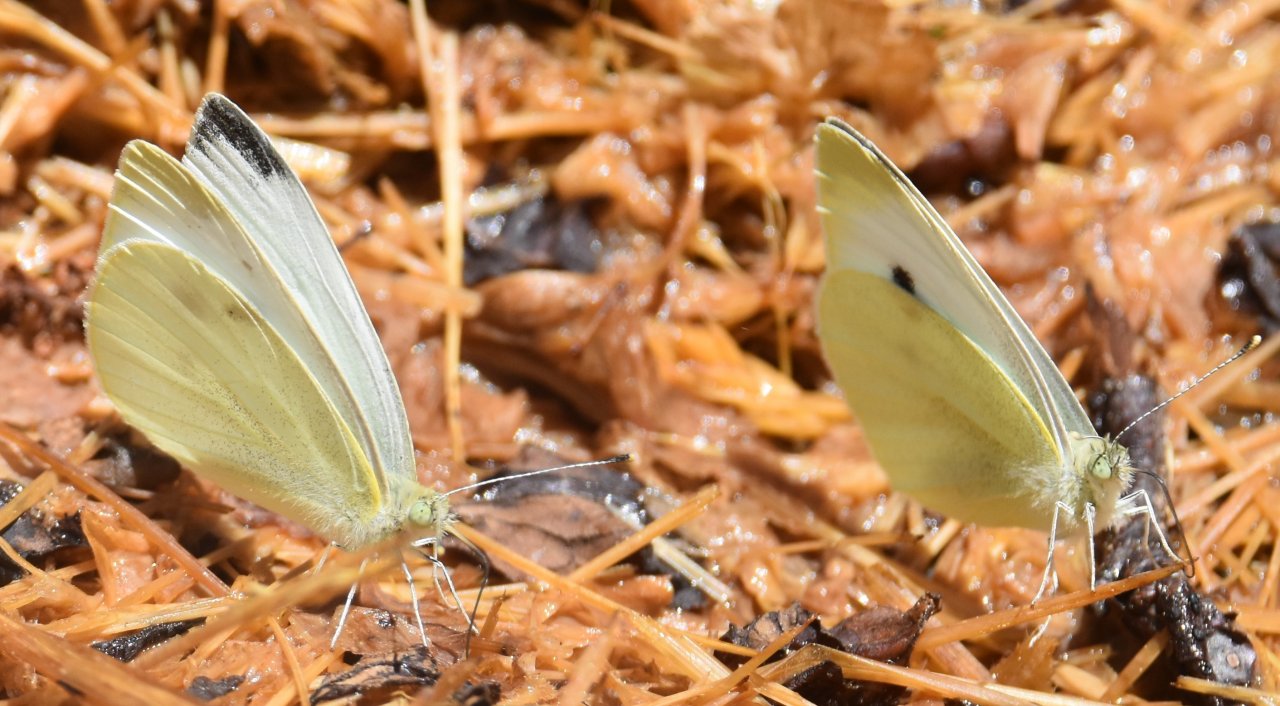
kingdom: Animalia
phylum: Arthropoda
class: Insecta
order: Lepidoptera
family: Pieridae
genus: Pieris
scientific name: Pieris rapae
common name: Cabbage White
